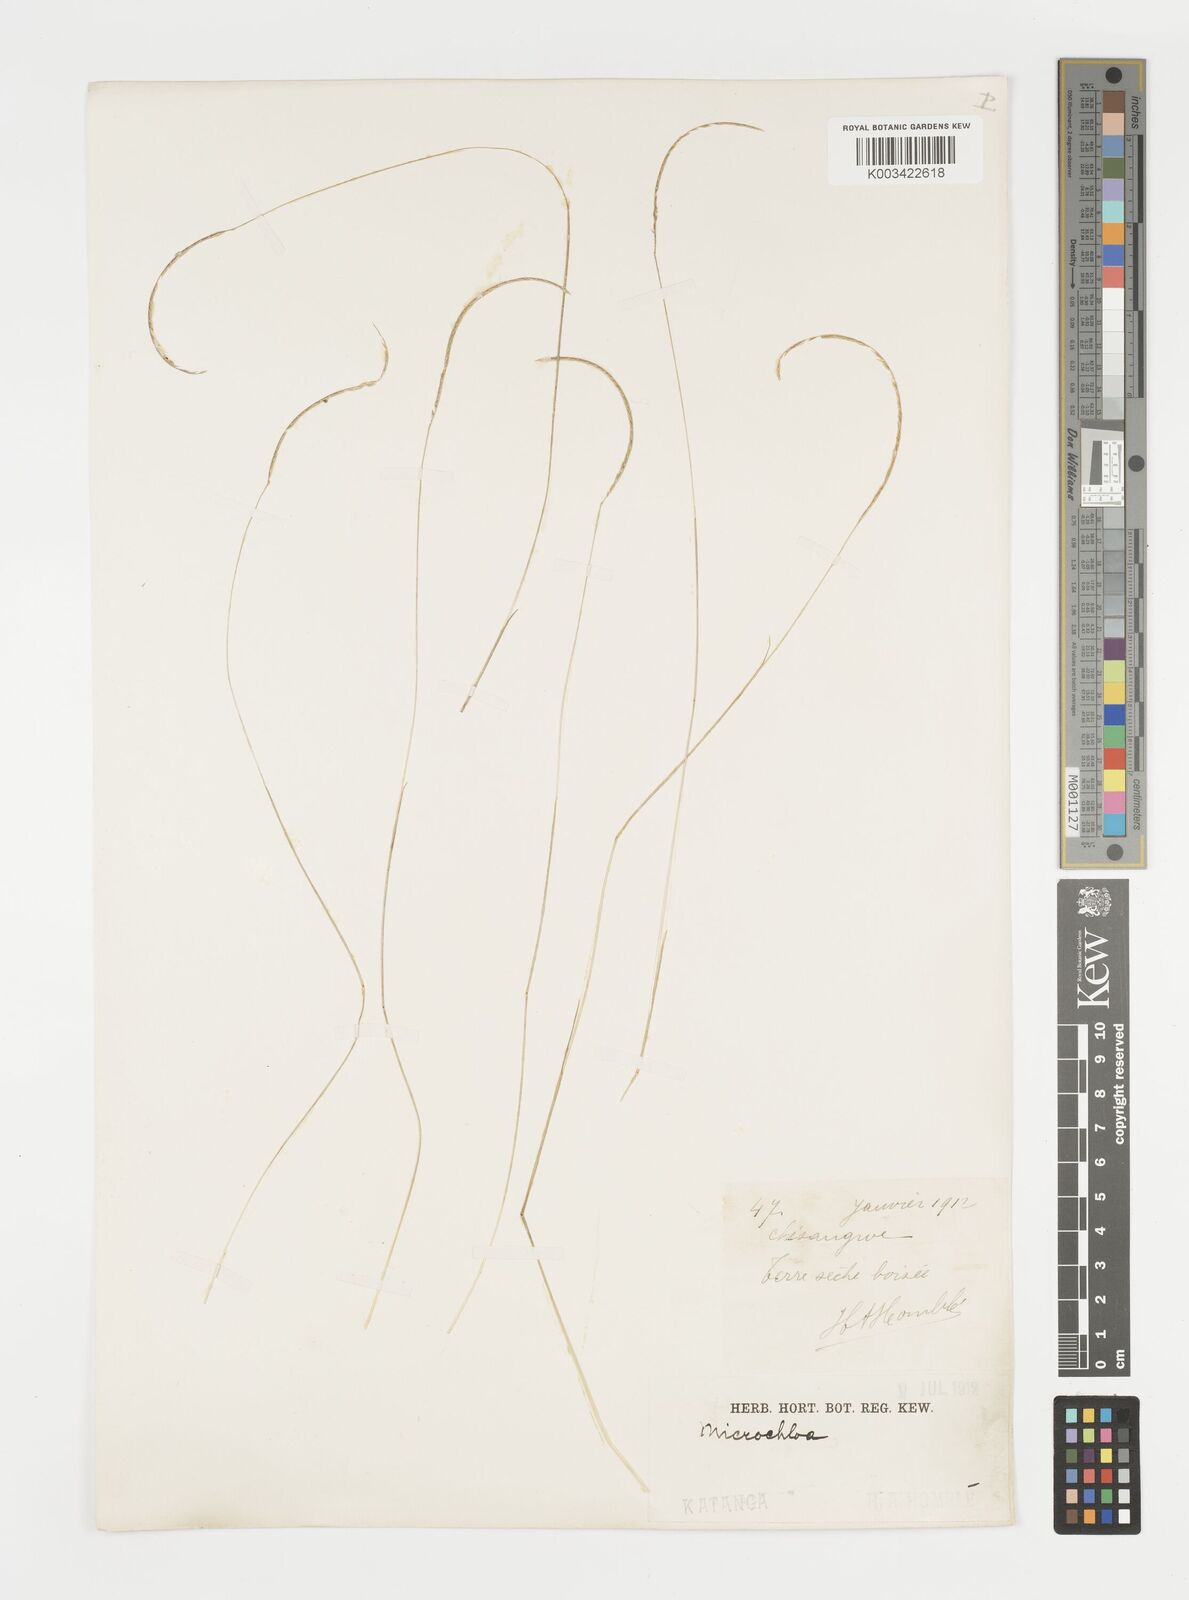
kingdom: Plantae
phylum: Tracheophyta
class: Liliopsida
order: Poales
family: Poaceae
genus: Microchloa
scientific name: Microchloa kunthii
